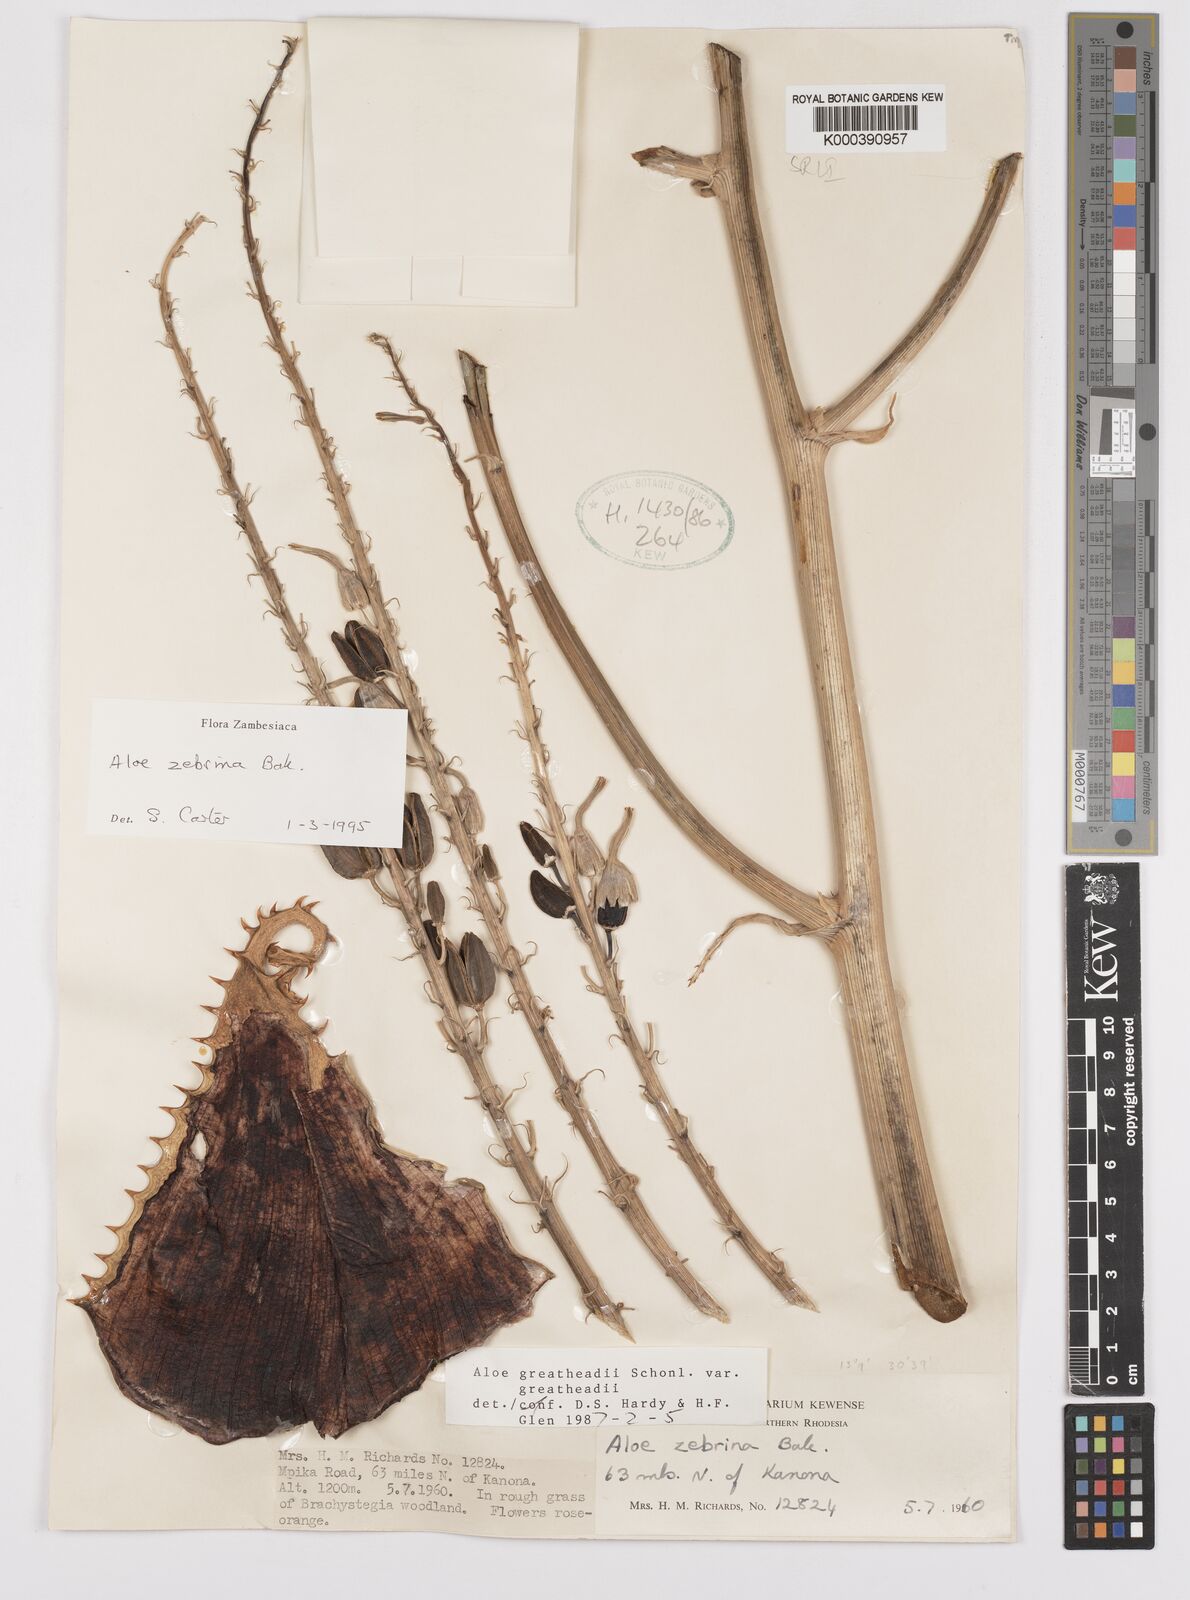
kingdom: Plantae
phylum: Tracheophyta
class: Liliopsida
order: Asparagales
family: Asphodelaceae
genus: Aloe
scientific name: Aloe zebrina
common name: Zebra-leaf aloe
